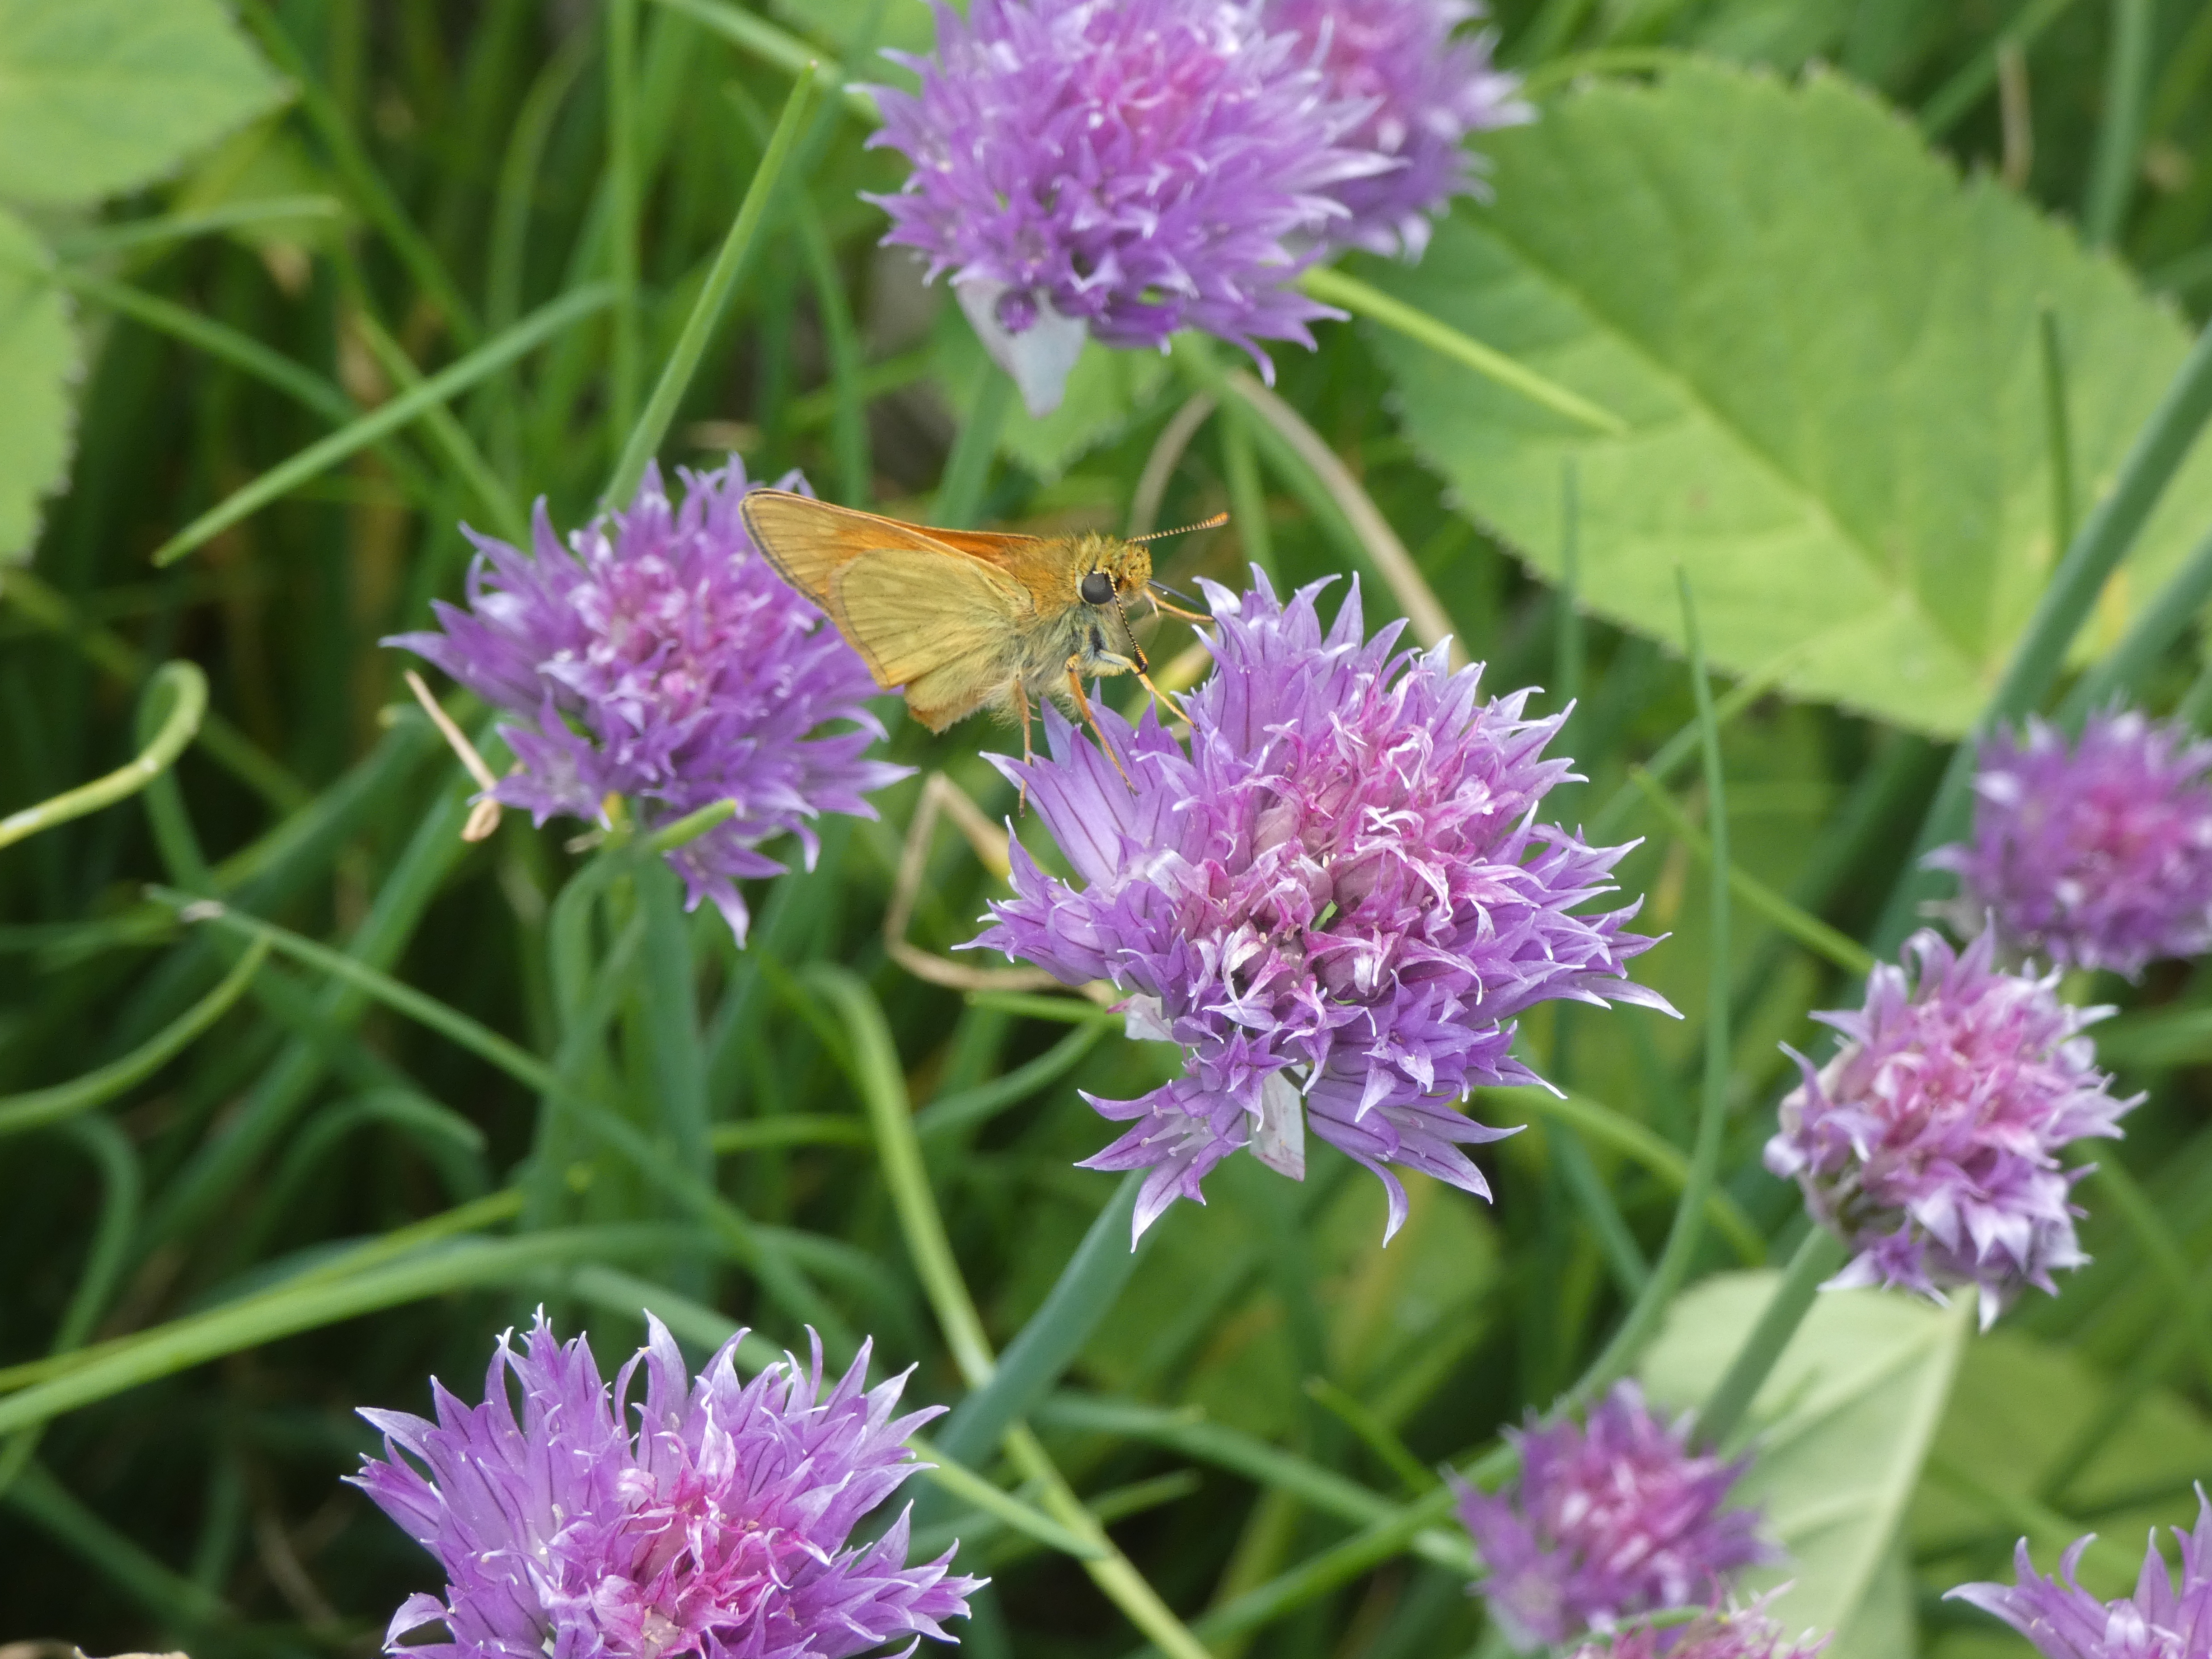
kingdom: Animalia
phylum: Arthropoda
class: Insecta
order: Lepidoptera
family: Hesperiidae
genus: Ochlodes
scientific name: Ochlodes venata
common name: Stor bredpande
